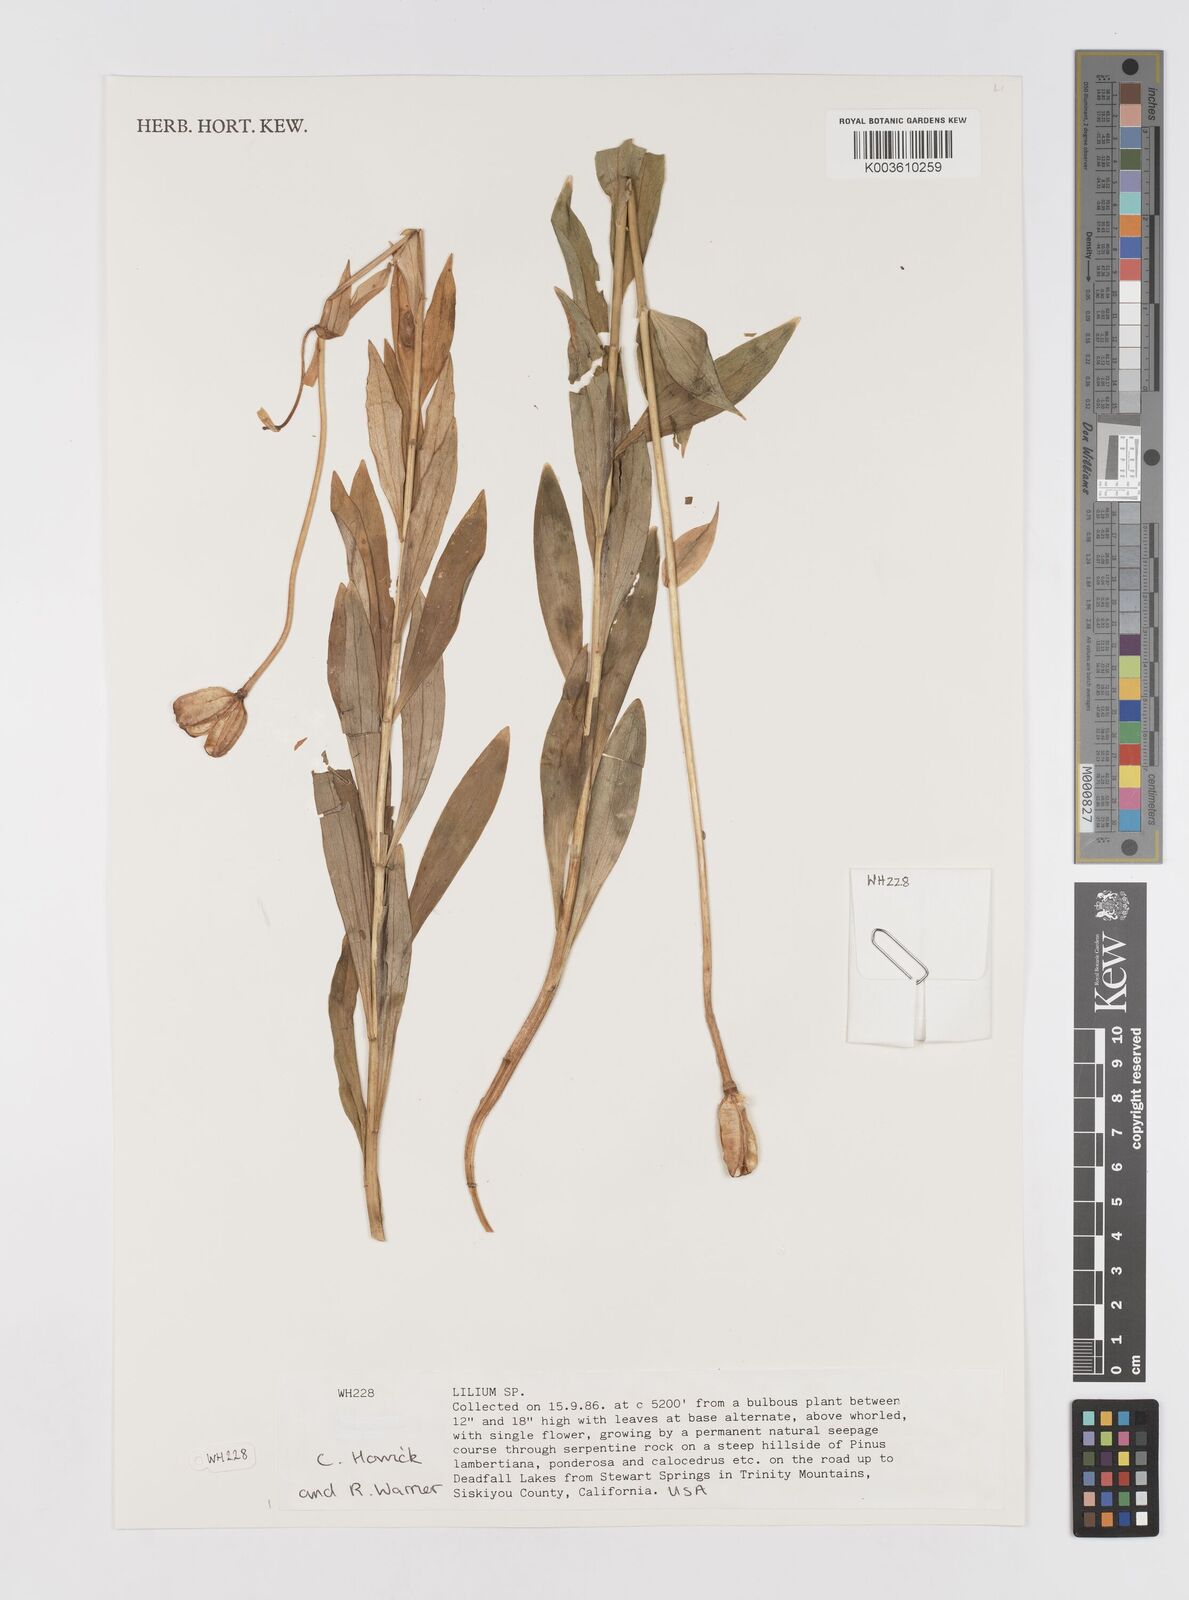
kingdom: Plantae
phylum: Tracheophyta
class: Liliopsida
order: Liliales
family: Liliaceae
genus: Lilium
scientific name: Lilium
